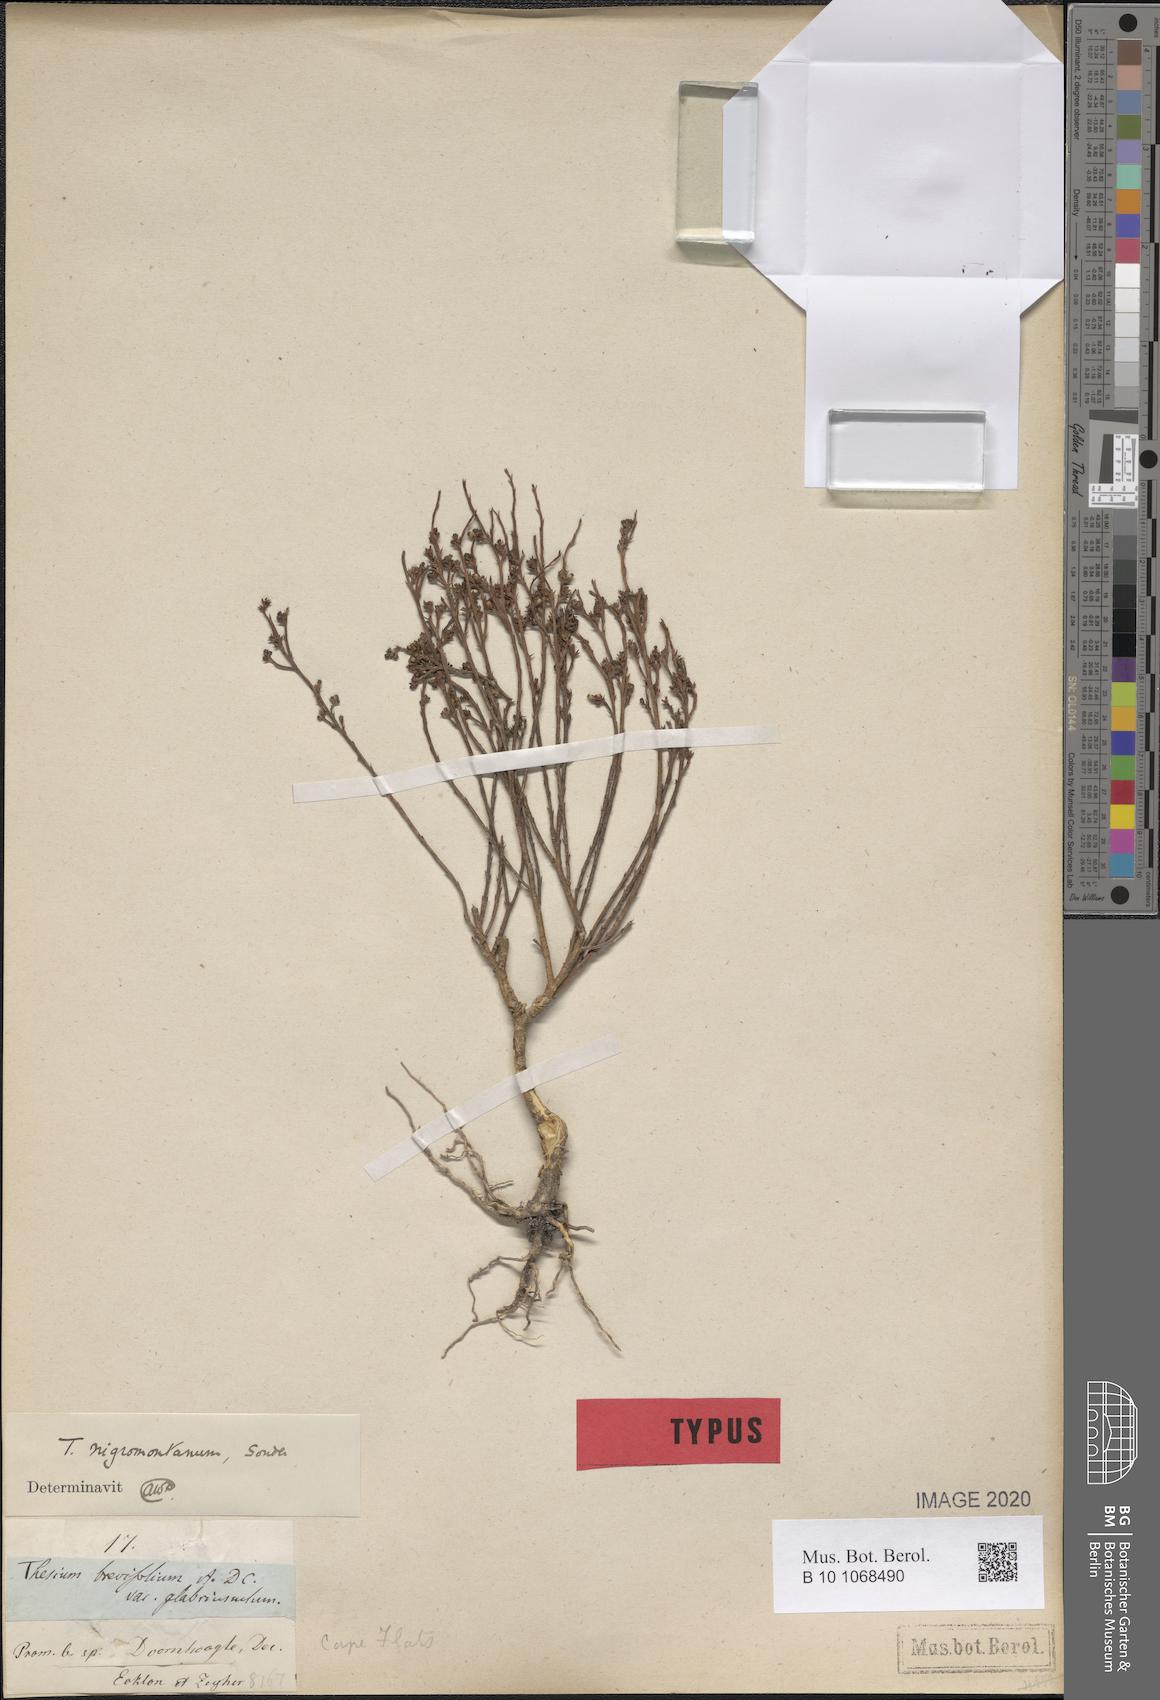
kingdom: Plantae
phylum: Tracheophyta
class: Magnoliopsida
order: Santalales
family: Thesiaceae
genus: Thesium
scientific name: Thesium nigromontanum
